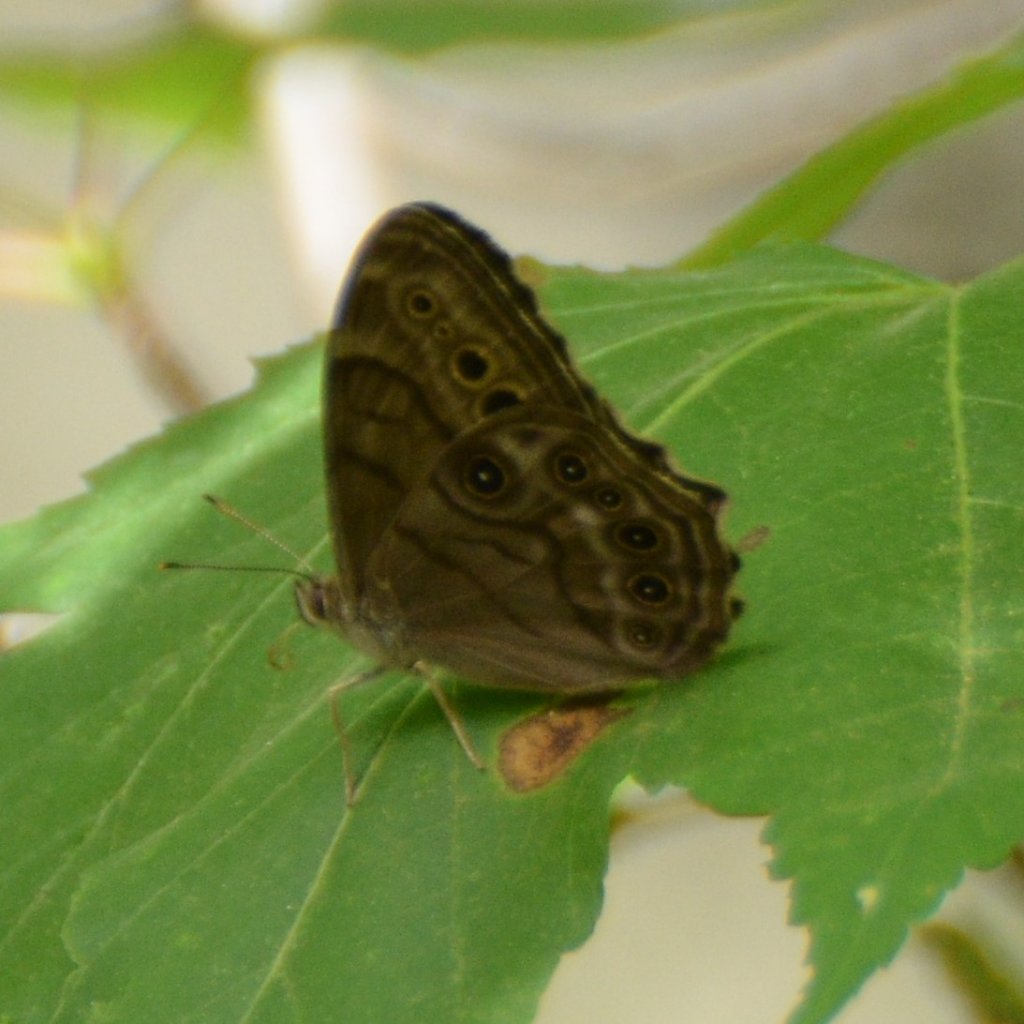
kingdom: Animalia
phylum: Arthropoda
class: Insecta
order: Lepidoptera
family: Nymphalidae
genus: Lethe
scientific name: Lethe anthedon
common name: Northern Pearly-Eye
